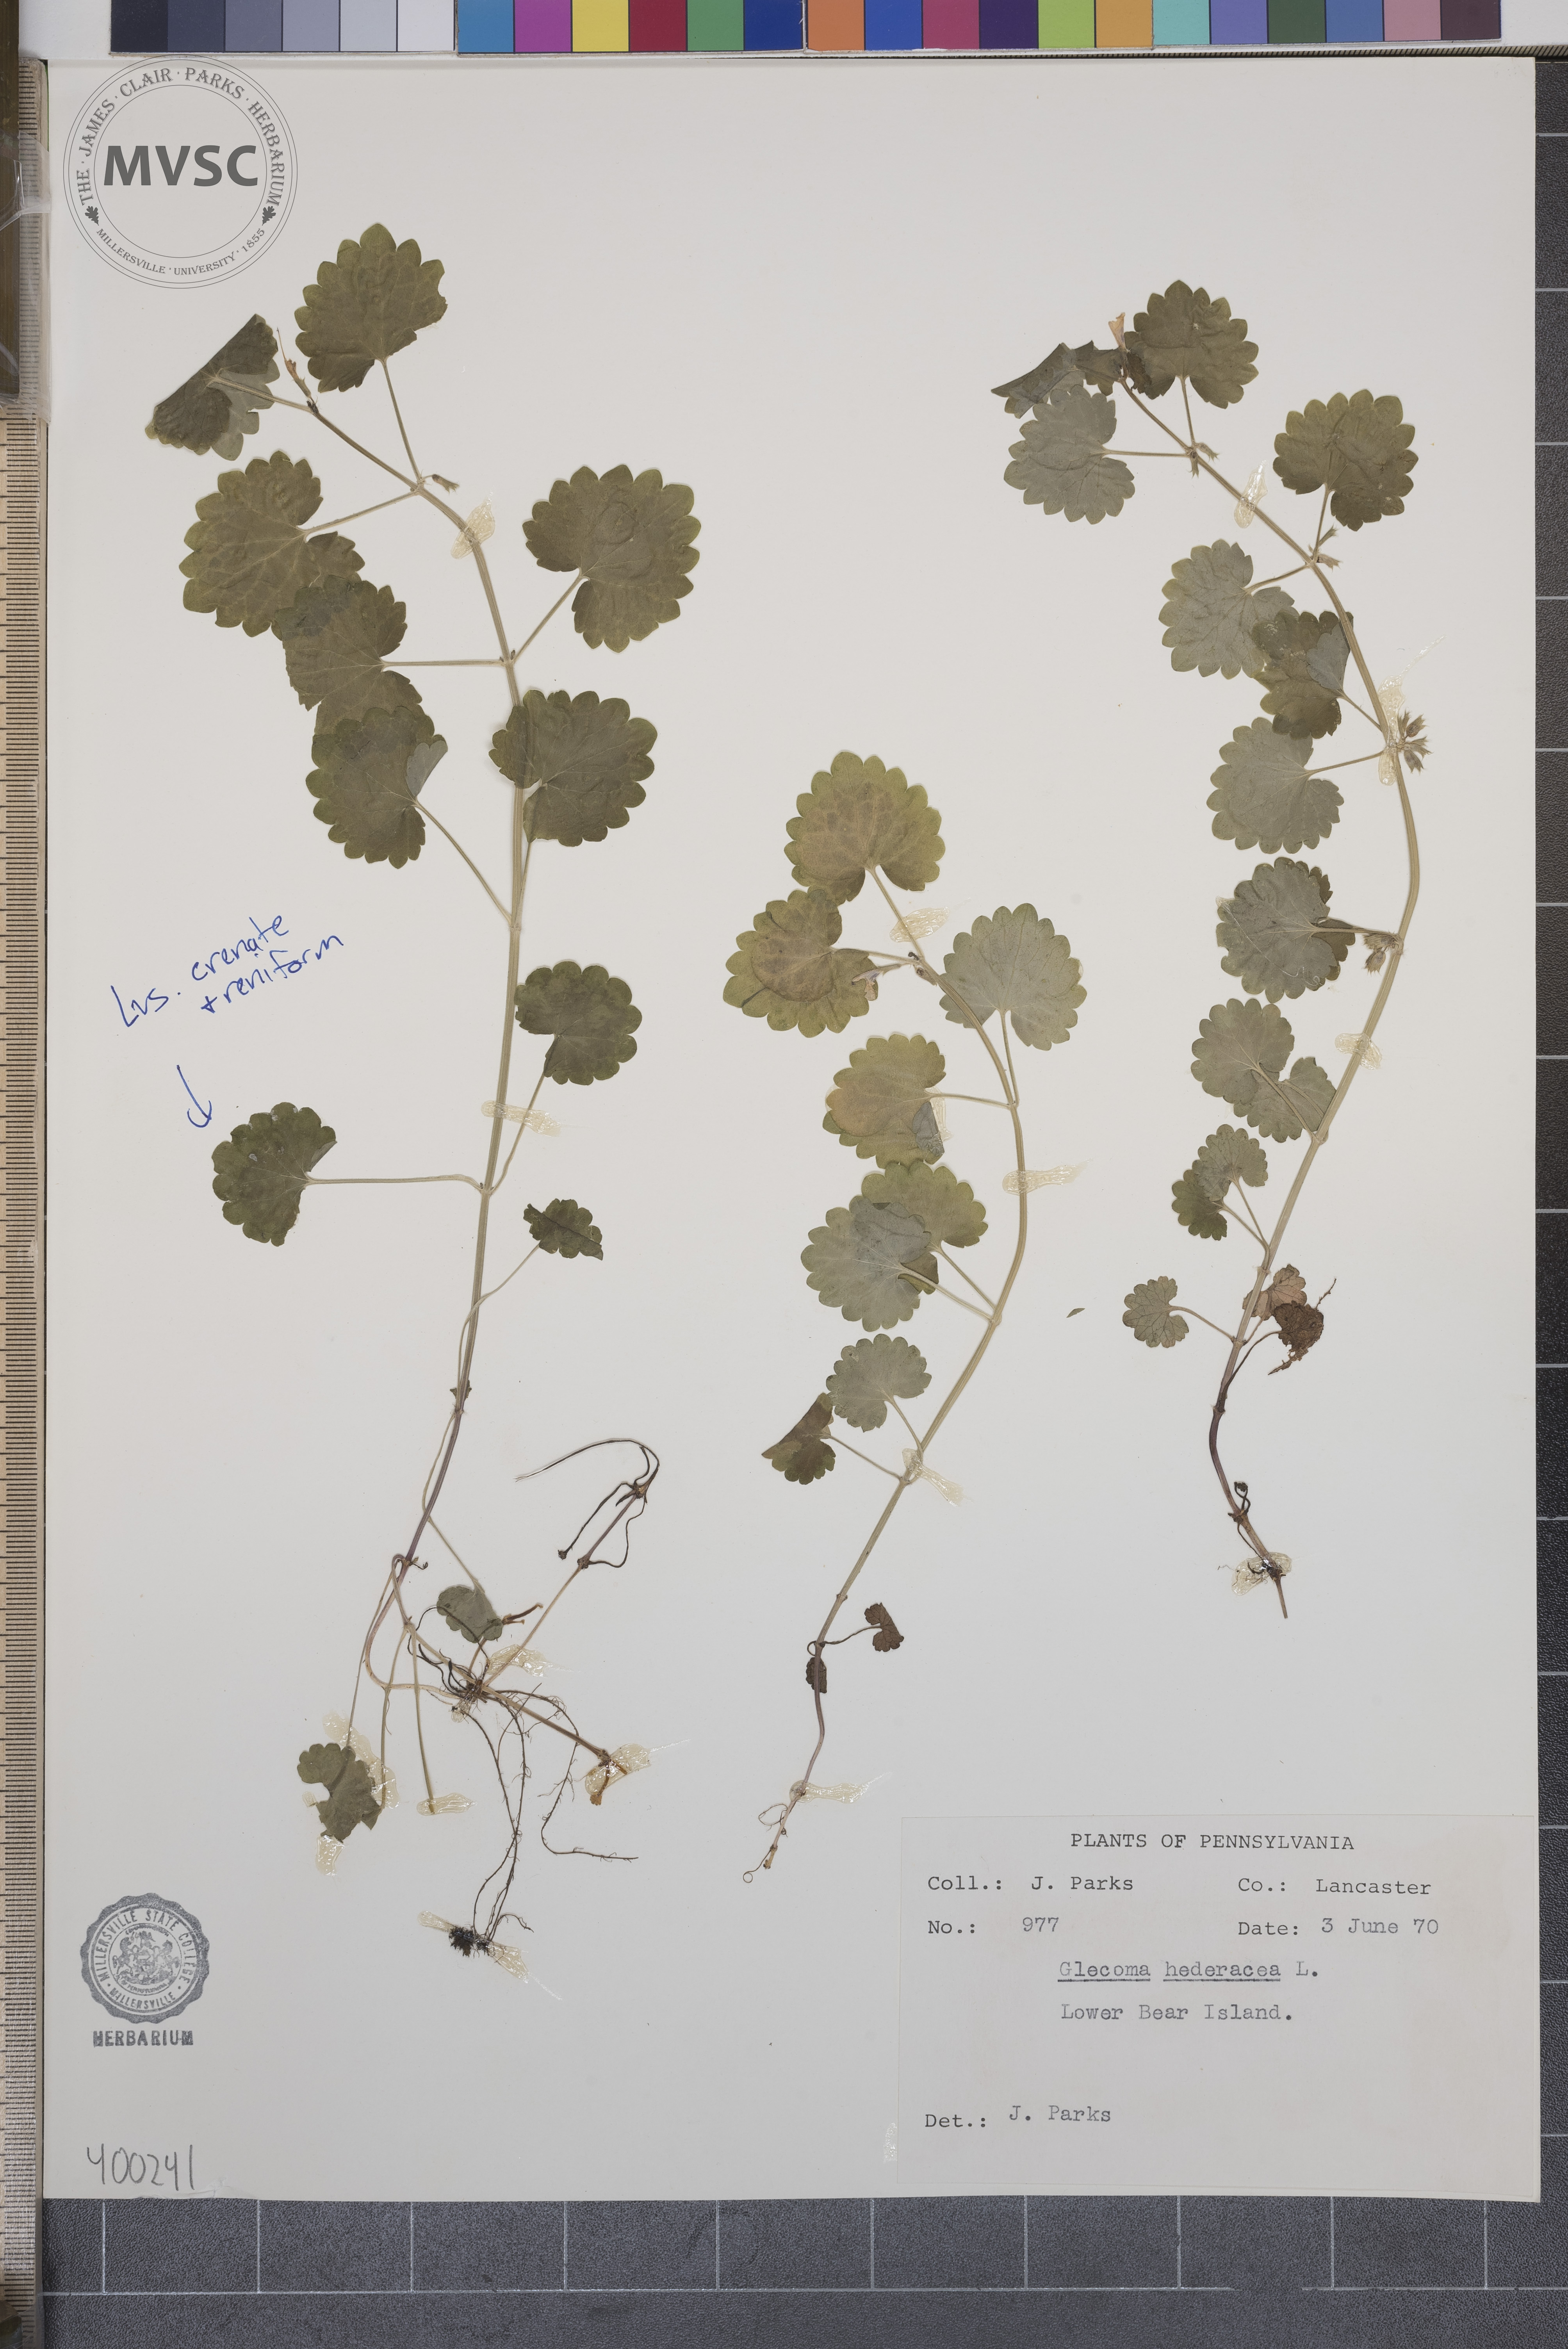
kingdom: Plantae
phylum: Tracheophyta
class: Magnoliopsida
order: Lamiales
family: Lamiaceae
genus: Glechoma
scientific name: Glechoma hederacea
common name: ground-ivy
